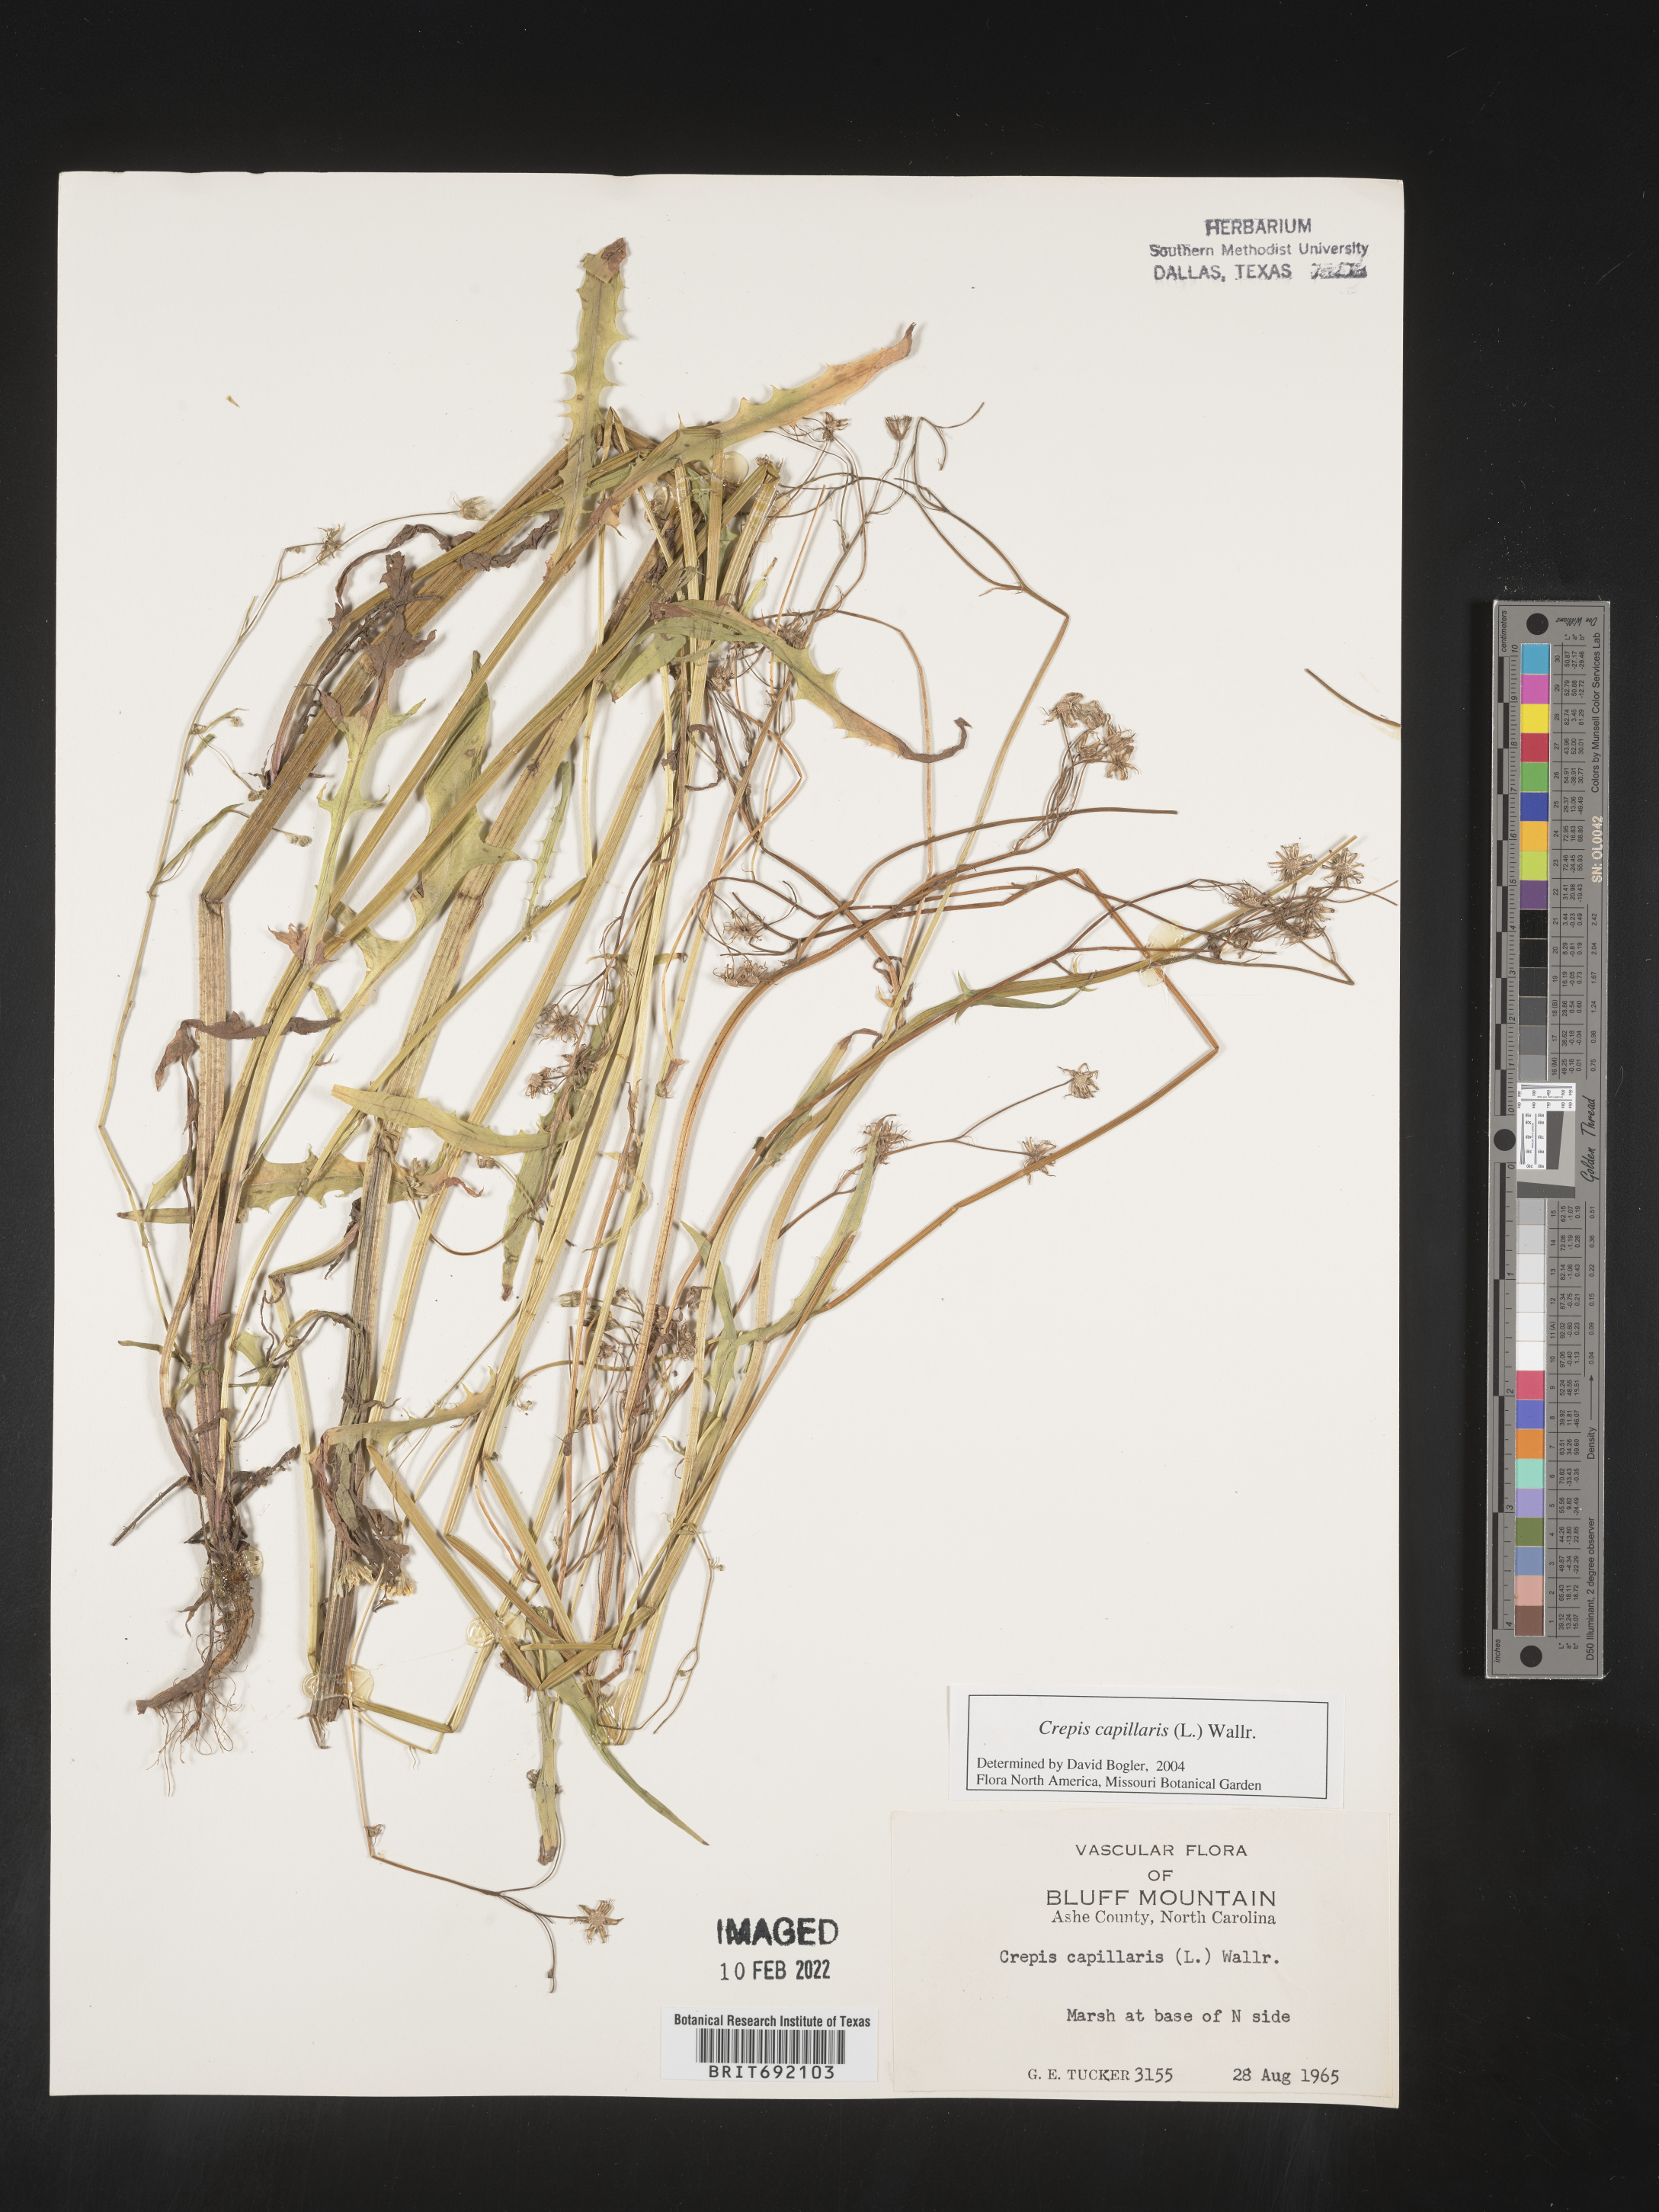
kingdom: Plantae
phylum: Tracheophyta
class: Magnoliopsida
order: Asterales
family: Asteraceae
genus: Crepis
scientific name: Crepis
